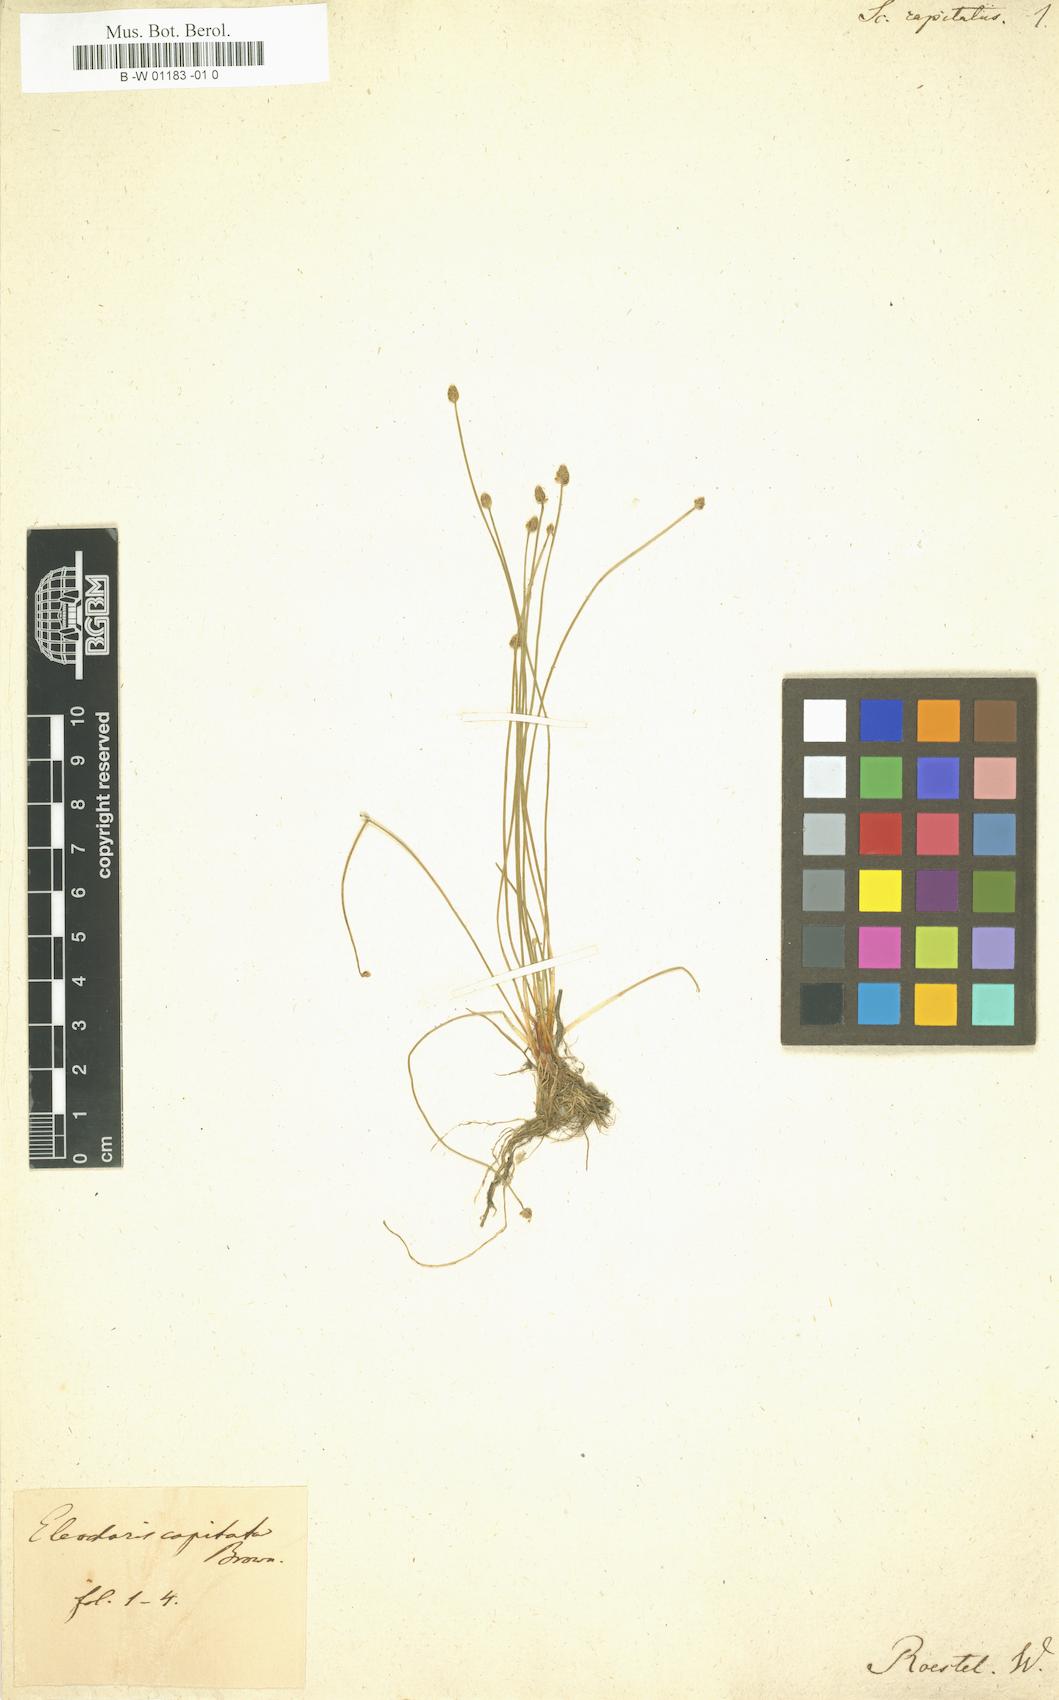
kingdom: Plantae
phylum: Tracheophyta
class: Liliopsida
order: Poales
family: Cyperaceae
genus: Eleocharis
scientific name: Eleocharis geniculata
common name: Canada spikesedge
